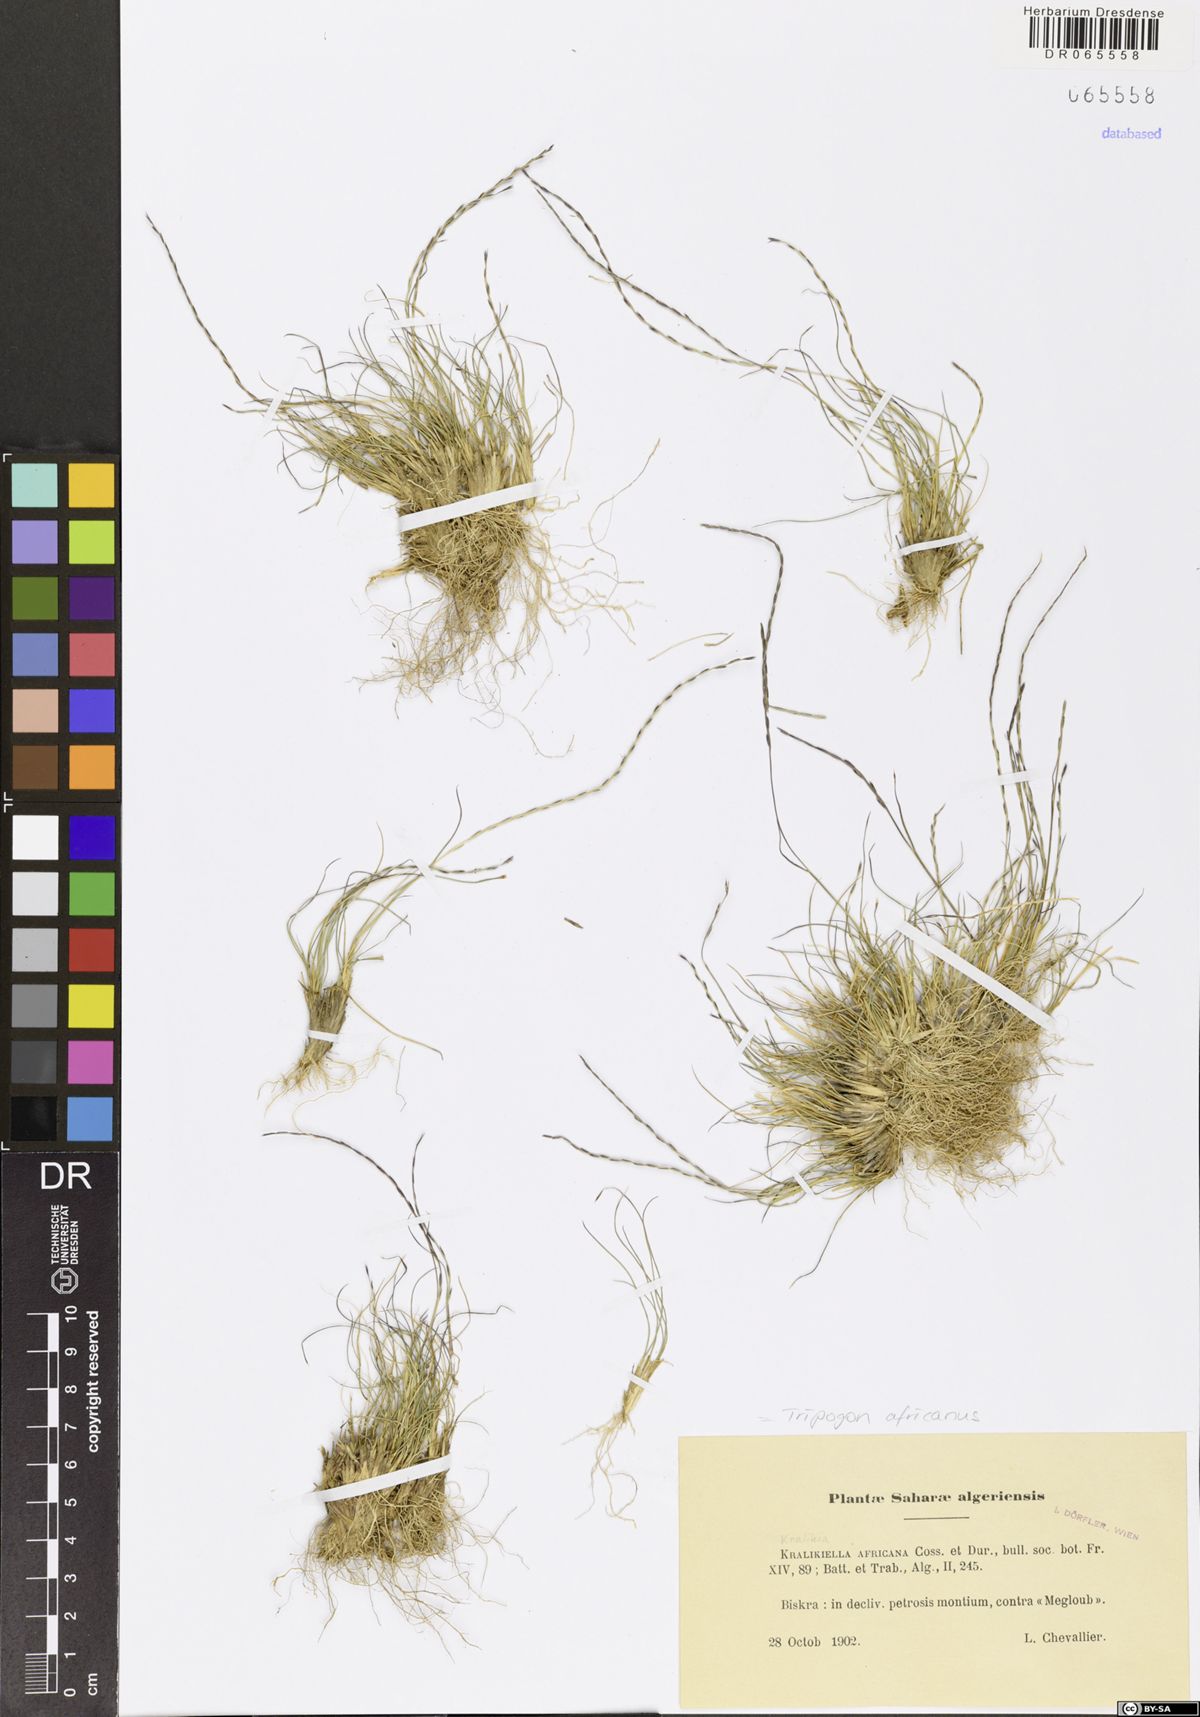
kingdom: Plantae
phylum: Tracheophyta
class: Liliopsida
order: Poales
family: Poaceae
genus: Tripogon
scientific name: Tripogon africanus
